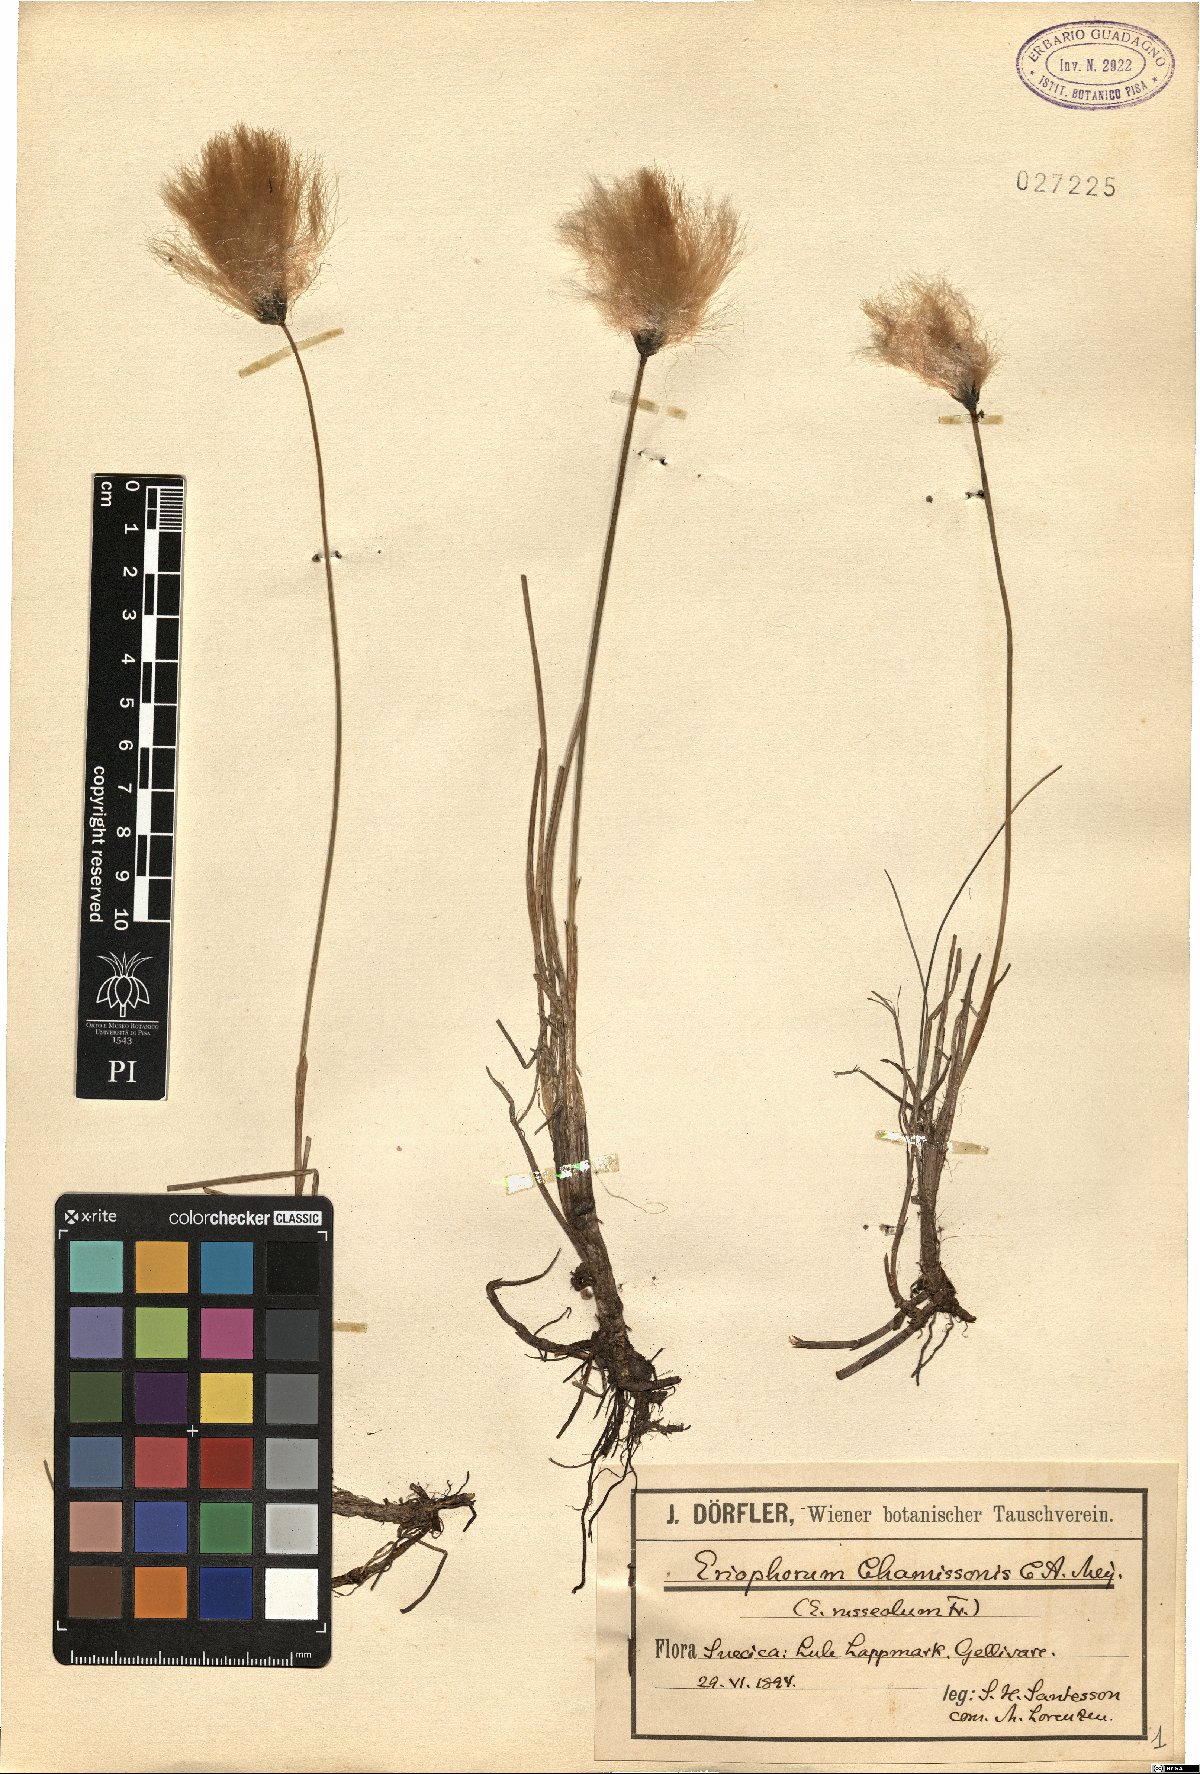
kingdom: Plantae
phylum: Tracheophyta
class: Liliopsida
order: Poales
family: Cyperaceae
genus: Eriophorum
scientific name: Eriophorum chamissonis
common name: Chamisso's cottongrass
